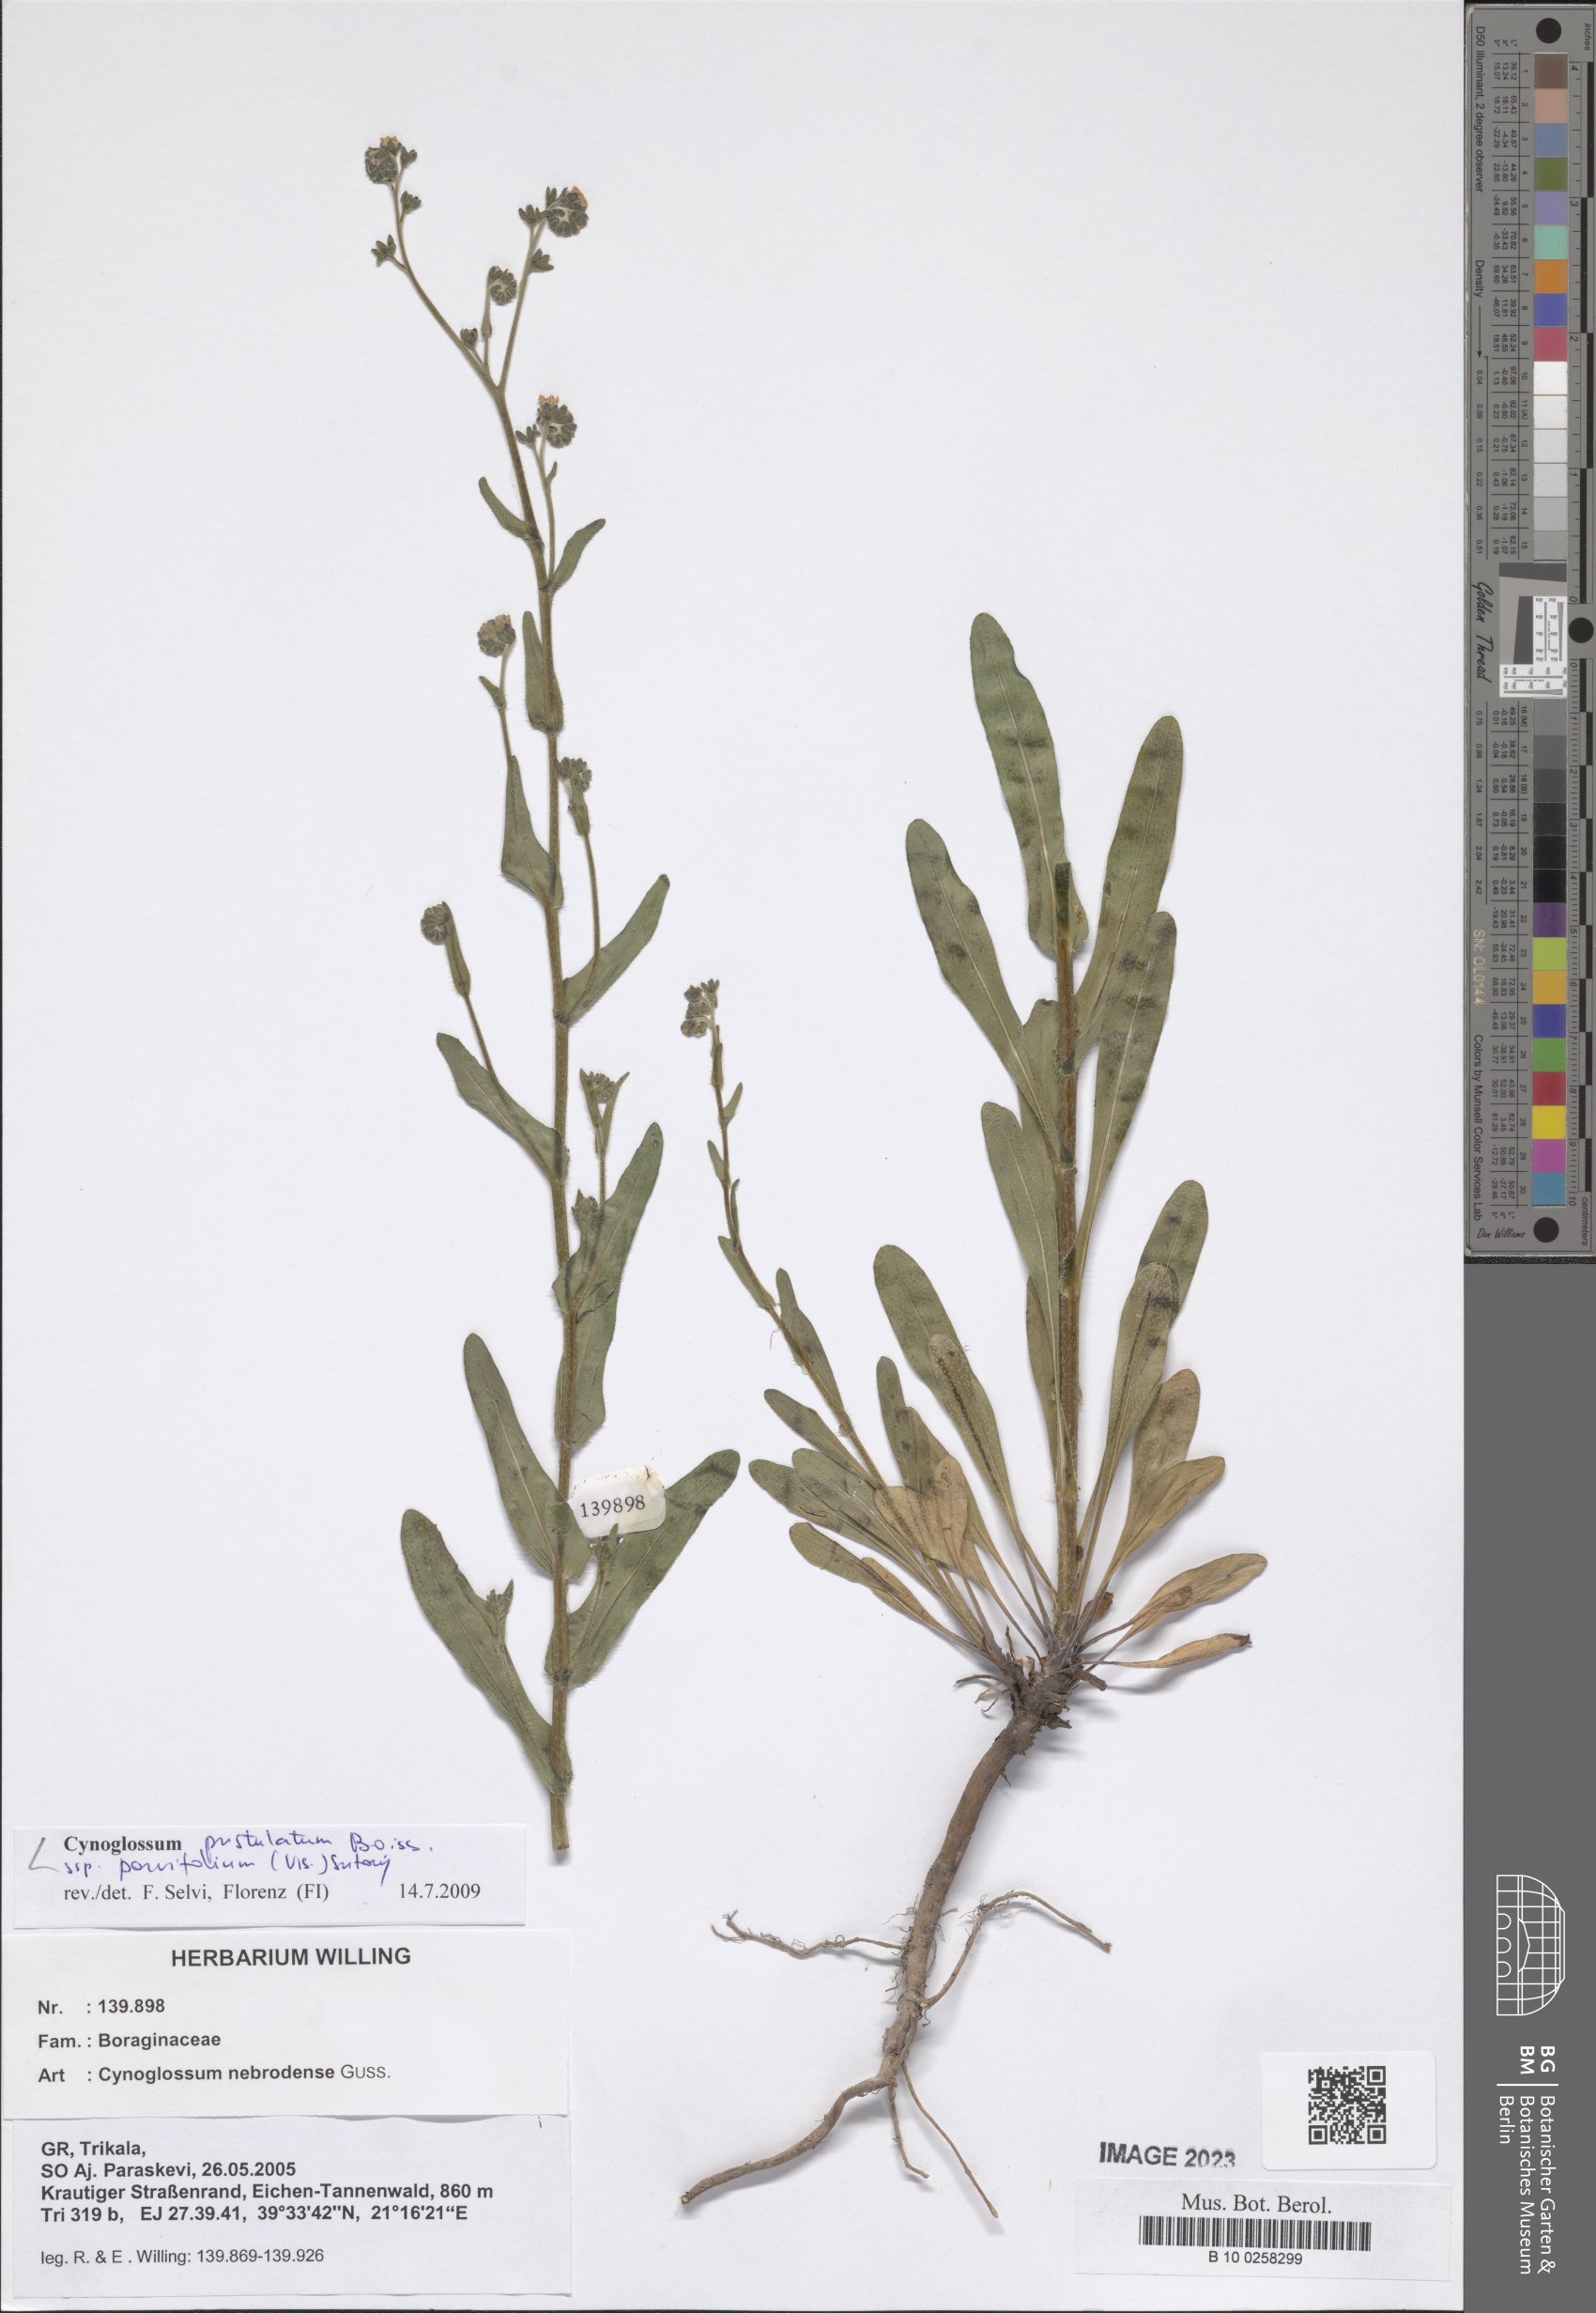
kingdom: Plantae
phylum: Tracheophyta
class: Magnoliopsida
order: Boraginales
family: Boraginaceae
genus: Cynoglossum
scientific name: Cynoglossum pustulatum
